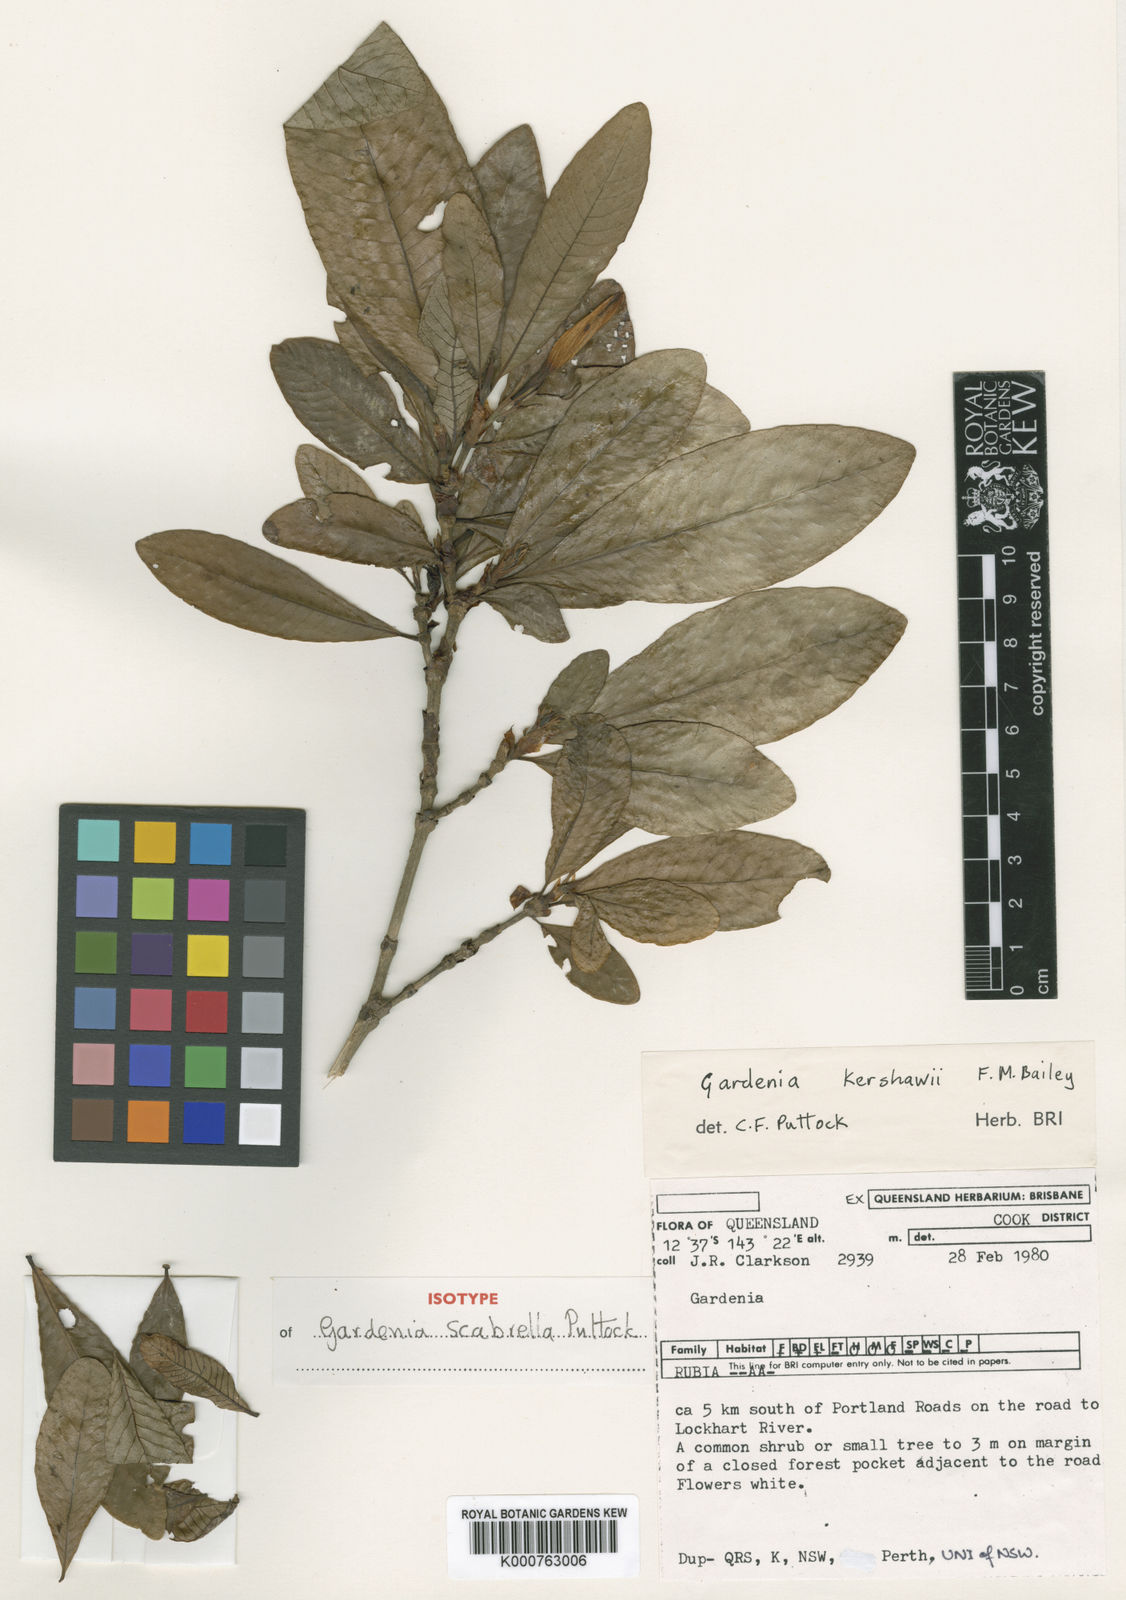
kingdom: Plantae
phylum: Tracheophyta
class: Magnoliopsida
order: Gentianales
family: Rubiaceae
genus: Gardenia
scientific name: Gardenia scabrella
